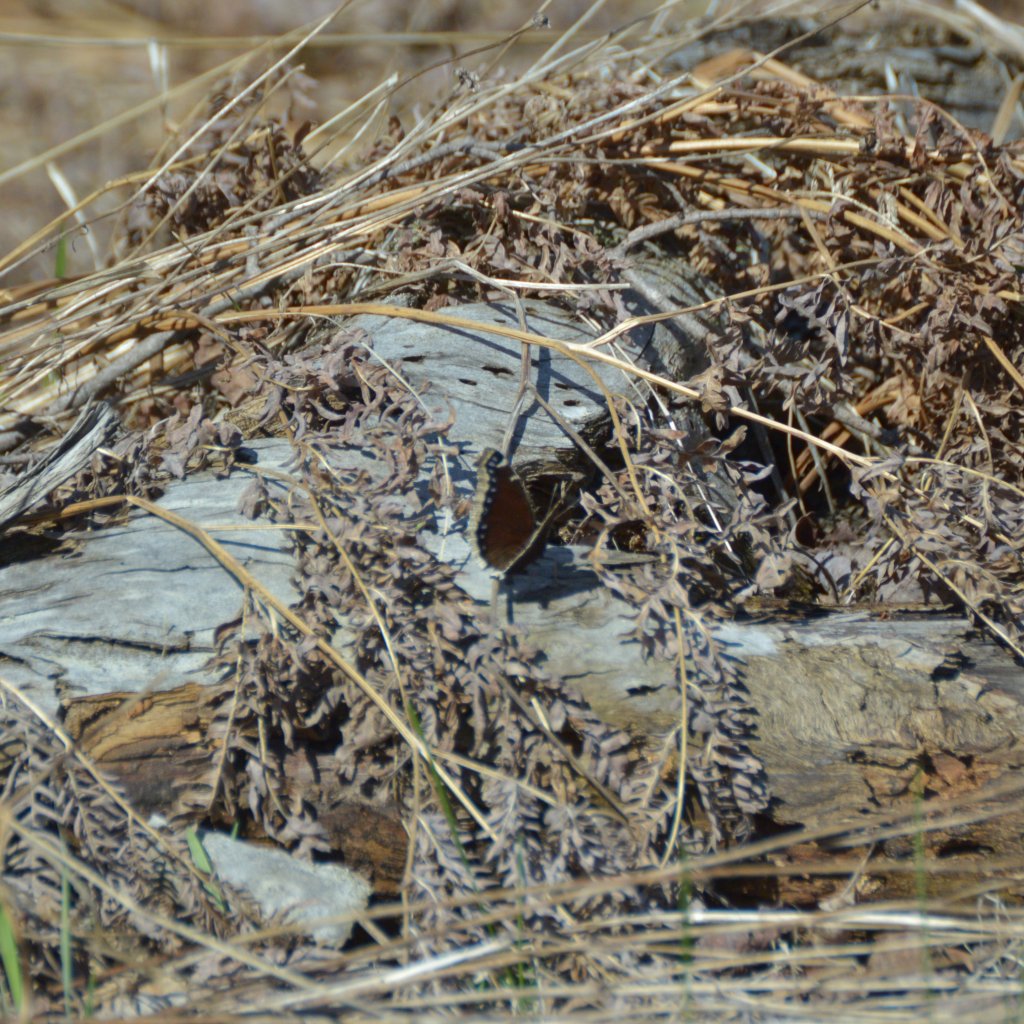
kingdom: Animalia
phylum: Arthropoda
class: Insecta
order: Lepidoptera
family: Nymphalidae
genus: Nymphalis
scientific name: Nymphalis antiopa
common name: Mourning Cloak
